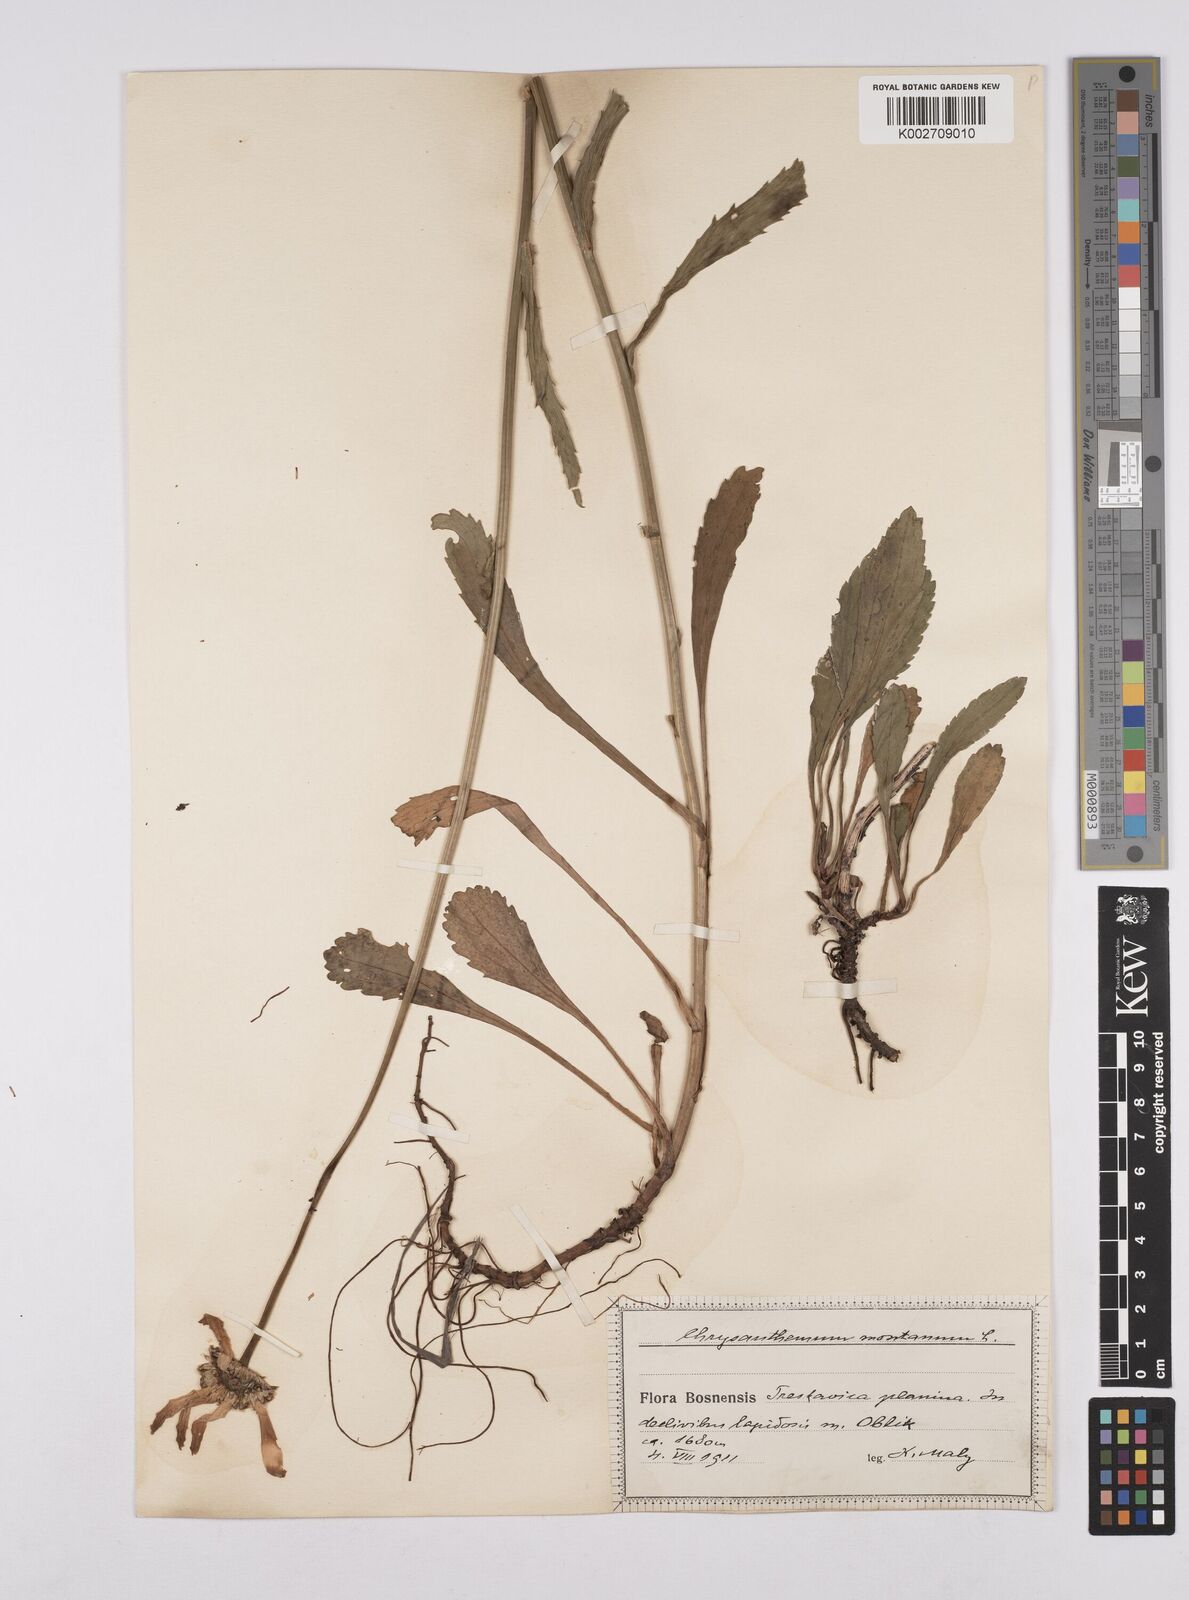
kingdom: Plantae
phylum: Tracheophyta
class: Magnoliopsida
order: Asterales
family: Asteraceae
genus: Leucanthemum
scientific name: Leucanthemum heterophyllum
